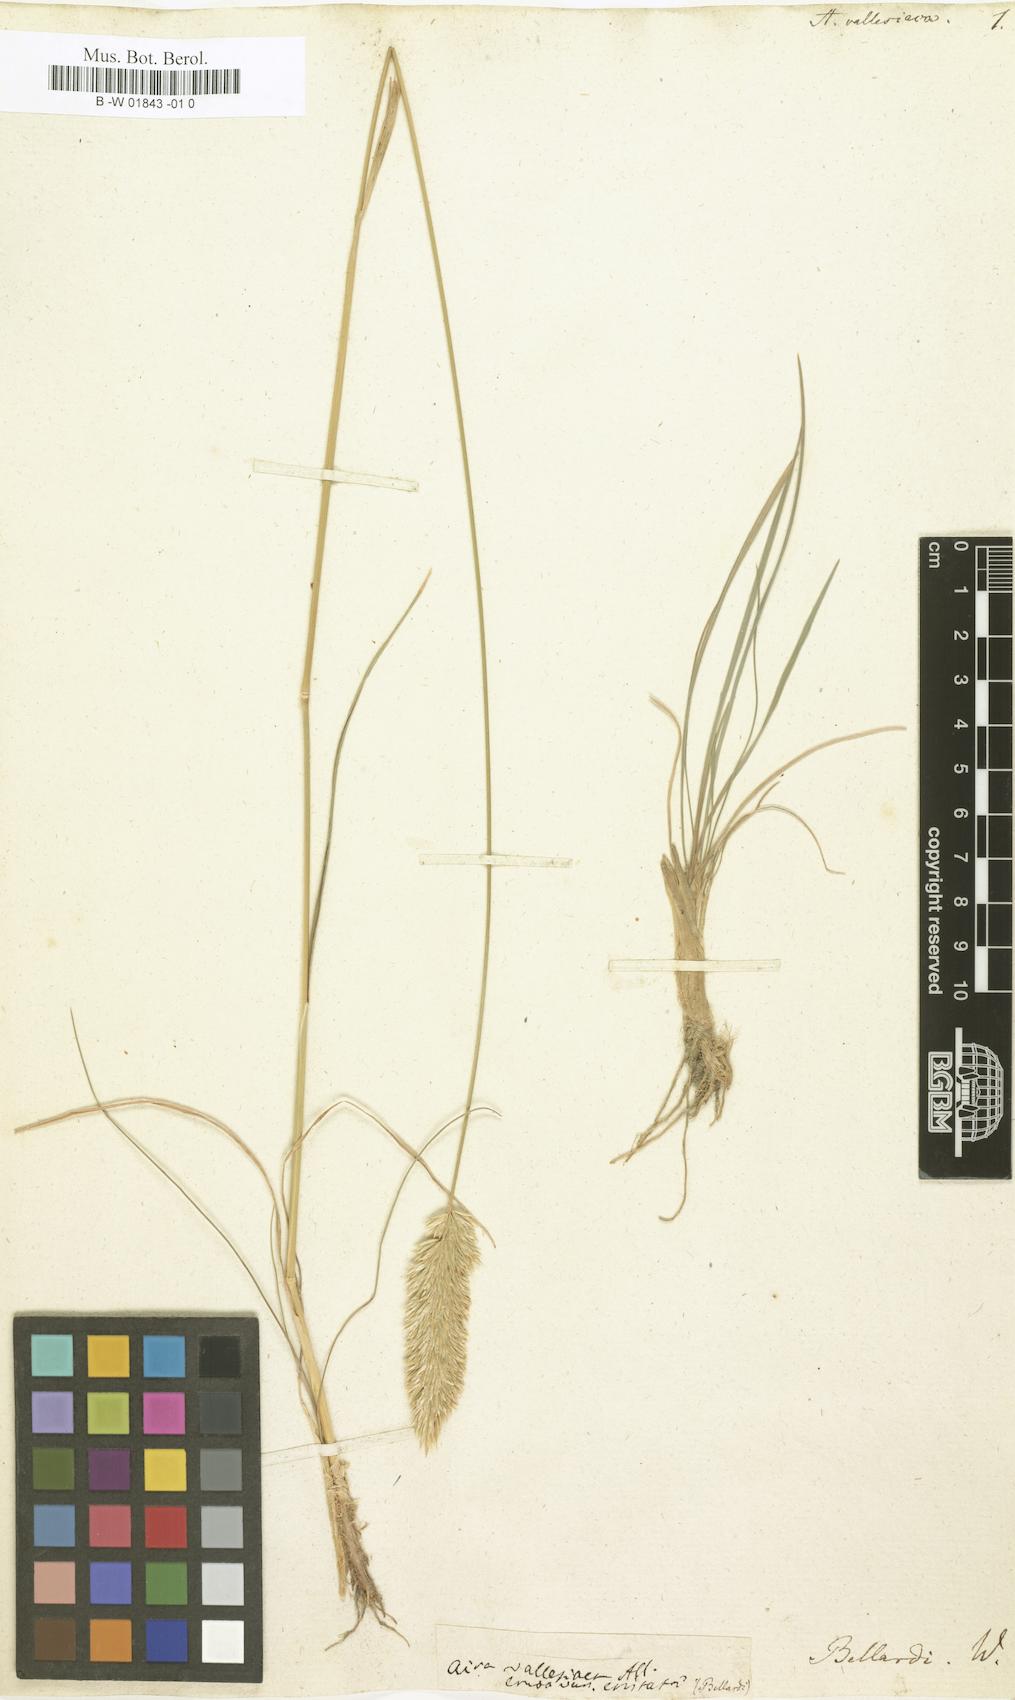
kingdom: Plantae
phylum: Tracheophyta
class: Liliopsida
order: Poales
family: Poaceae
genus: Koeleria
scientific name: Koeleria vallesiana
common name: Somerset hair-grass
